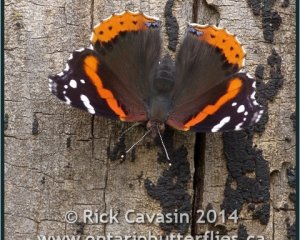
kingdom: Animalia
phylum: Arthropoda
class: Insecta
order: Lepidoptera
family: Nymphalidae
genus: Vanessa
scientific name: Vanessa atalanta
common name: Red Admiral
